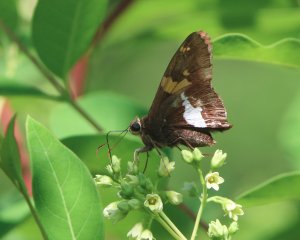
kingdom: Animalia
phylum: Arthropoda
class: Insecta
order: Lepidoptera
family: Hesperiidae
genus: Epargyreus
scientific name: Epargyreus clarus
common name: Silver-spotted Skipper
